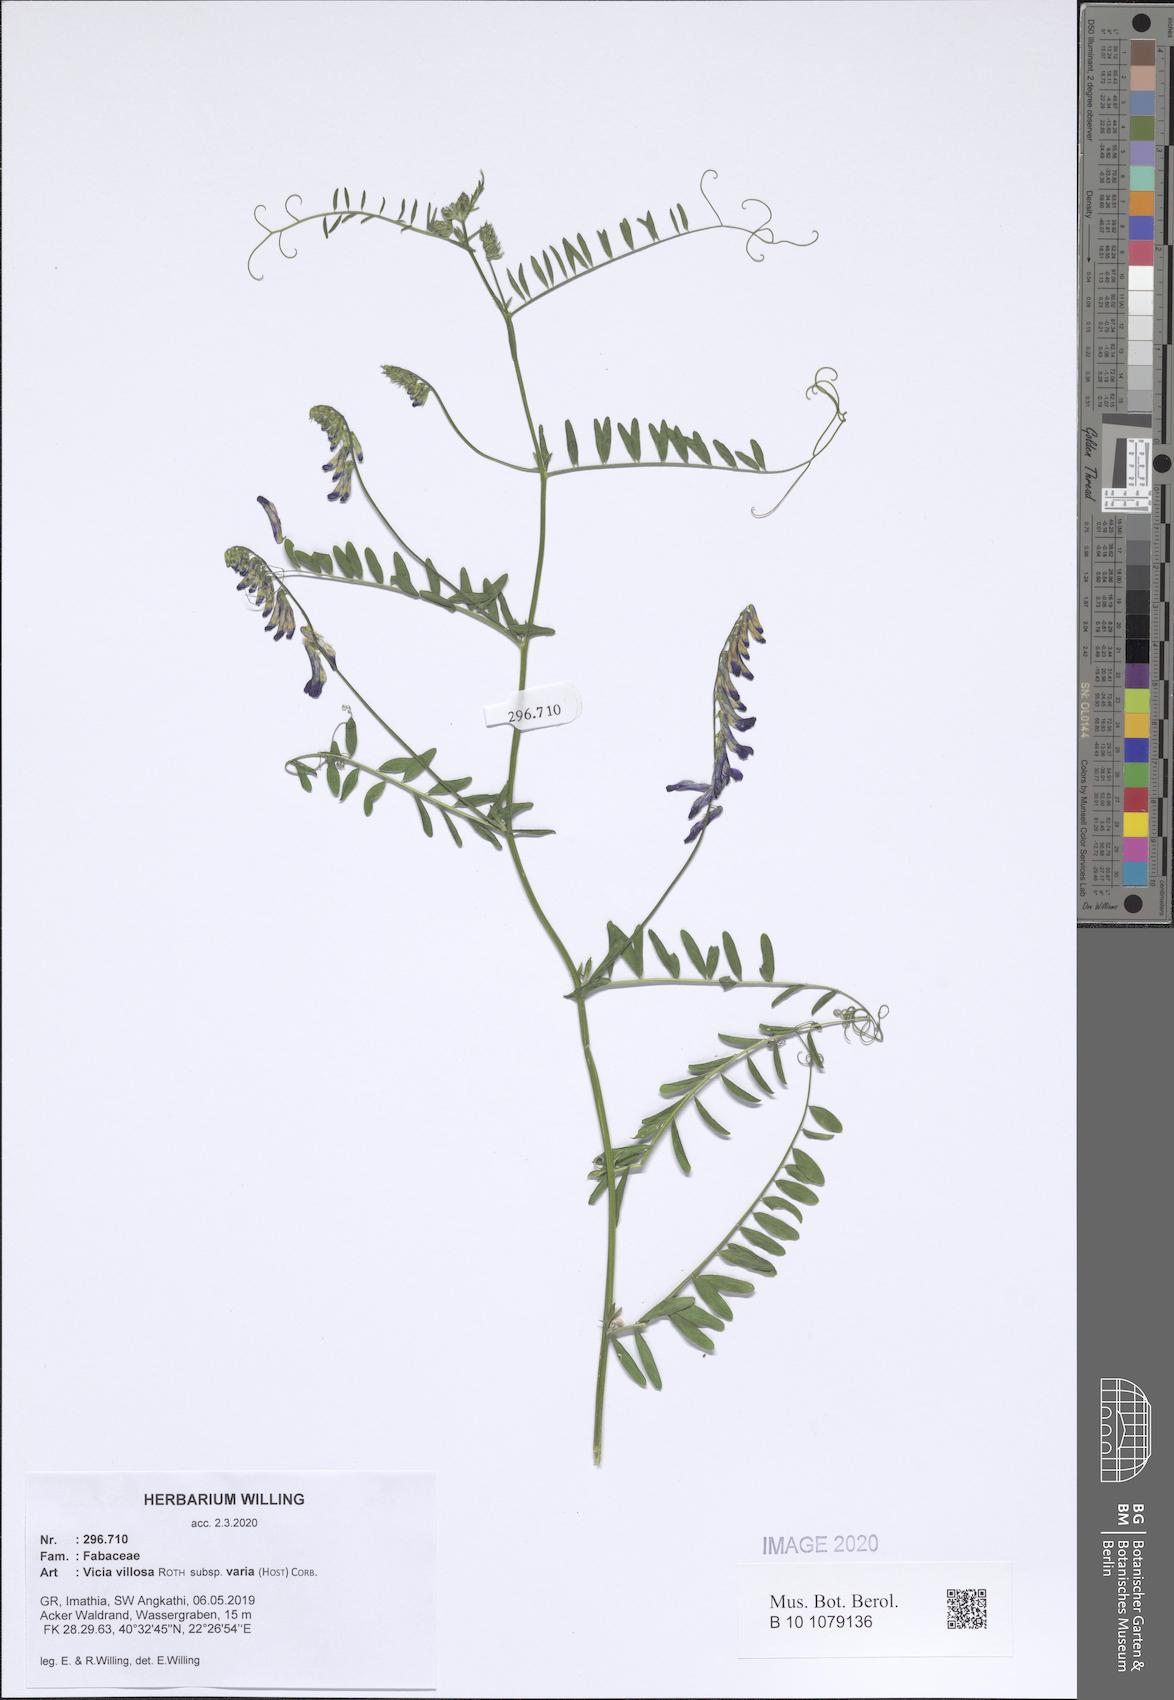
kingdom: Plantae
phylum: Tracheophyta
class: Magnoliopsida
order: Fabales
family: Fabaceae
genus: Vicia
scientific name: Vicia villosa
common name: Fodder vetch
